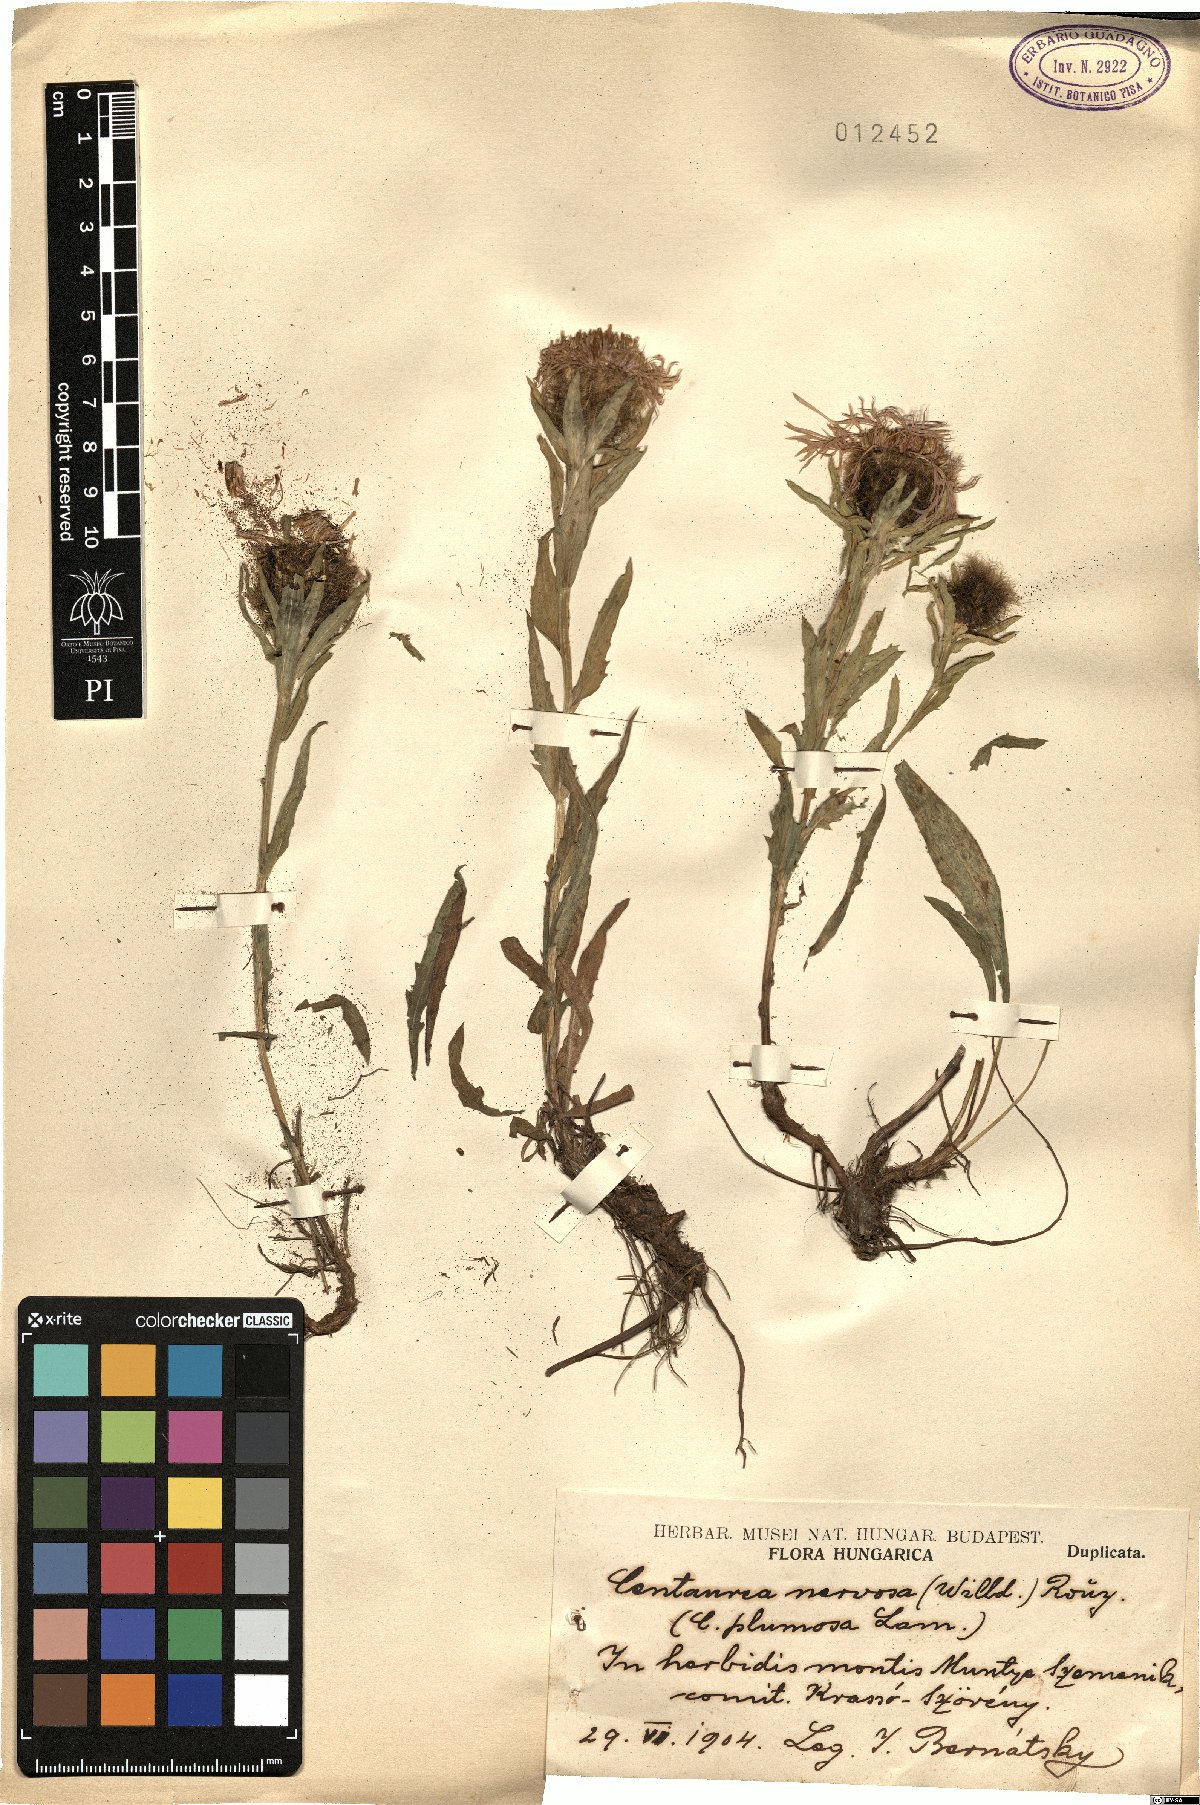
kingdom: Plantae
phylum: Tracheophyta
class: Magnoliopsida
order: Asterales
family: Asteraceae
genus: Centaurea
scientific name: Centaurea nervosa
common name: Singleflower knapweed
